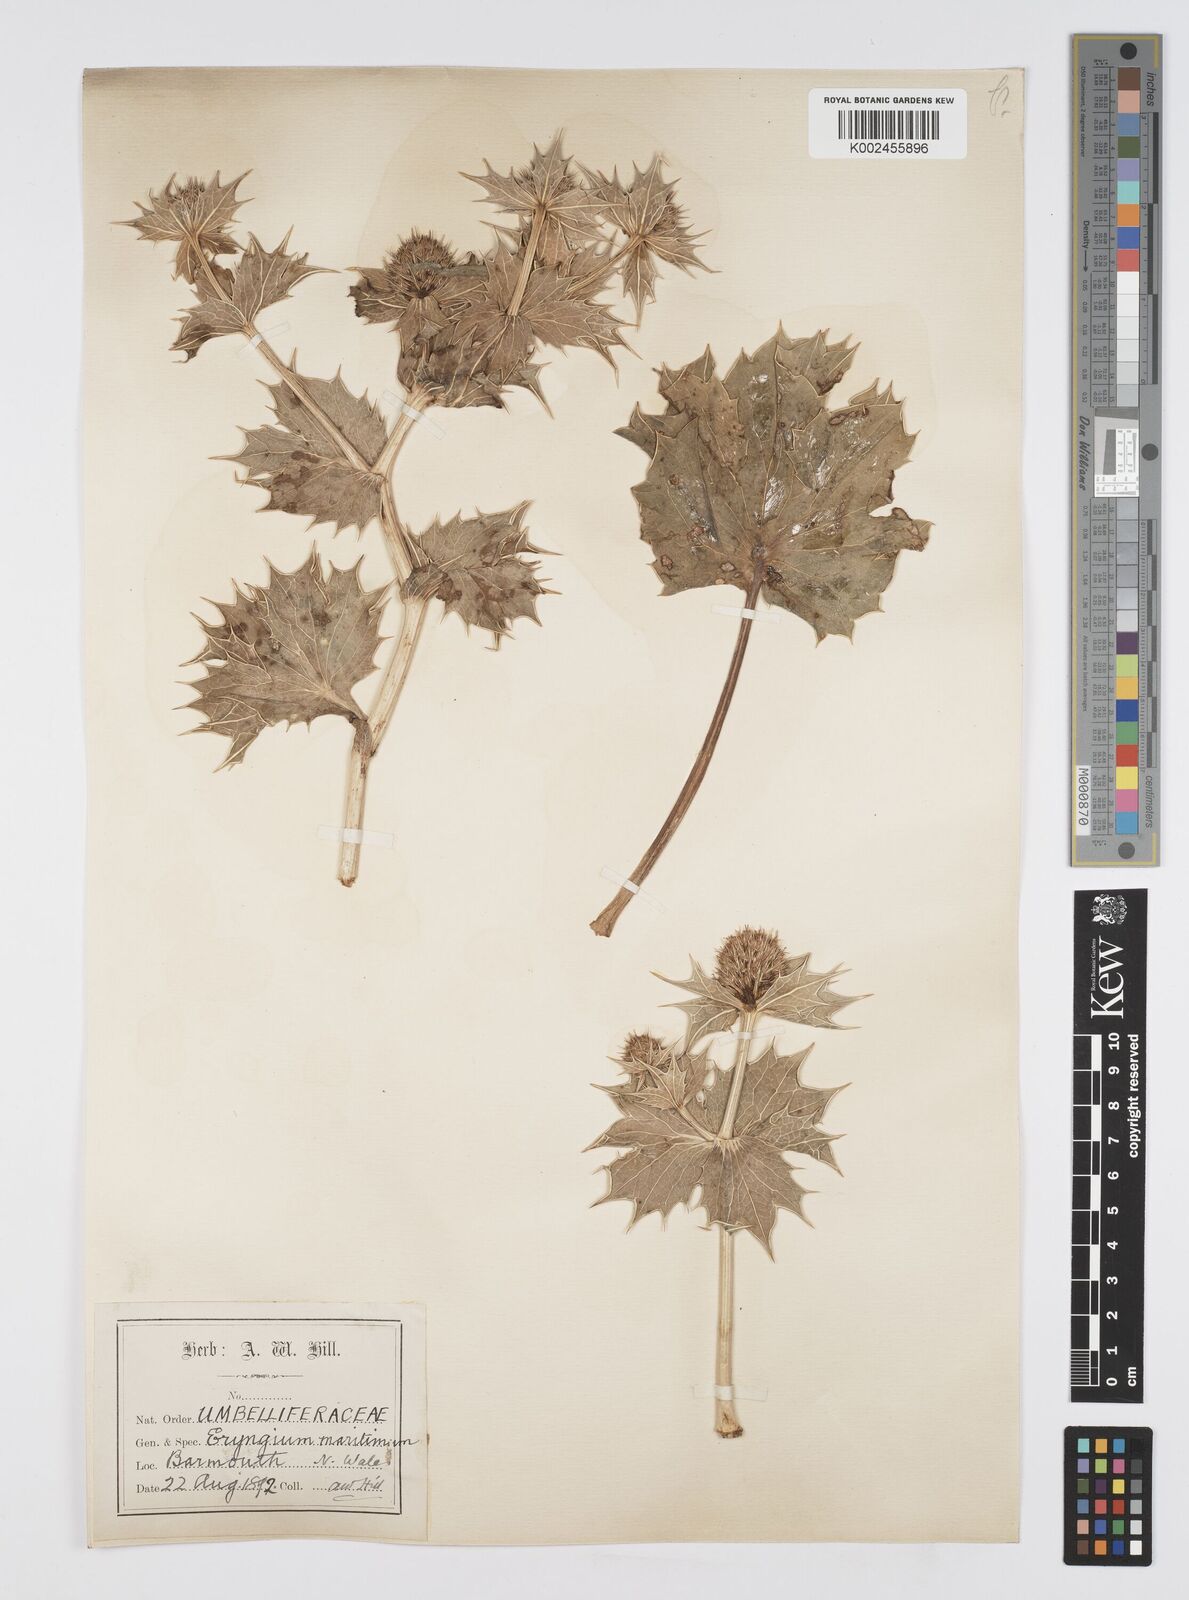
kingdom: Plantae
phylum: Tracheophyta
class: Magnoliopsida
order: Apiales
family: Apiaceae
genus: Eryngium
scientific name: Eryngium maritimum
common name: Sea-holly
